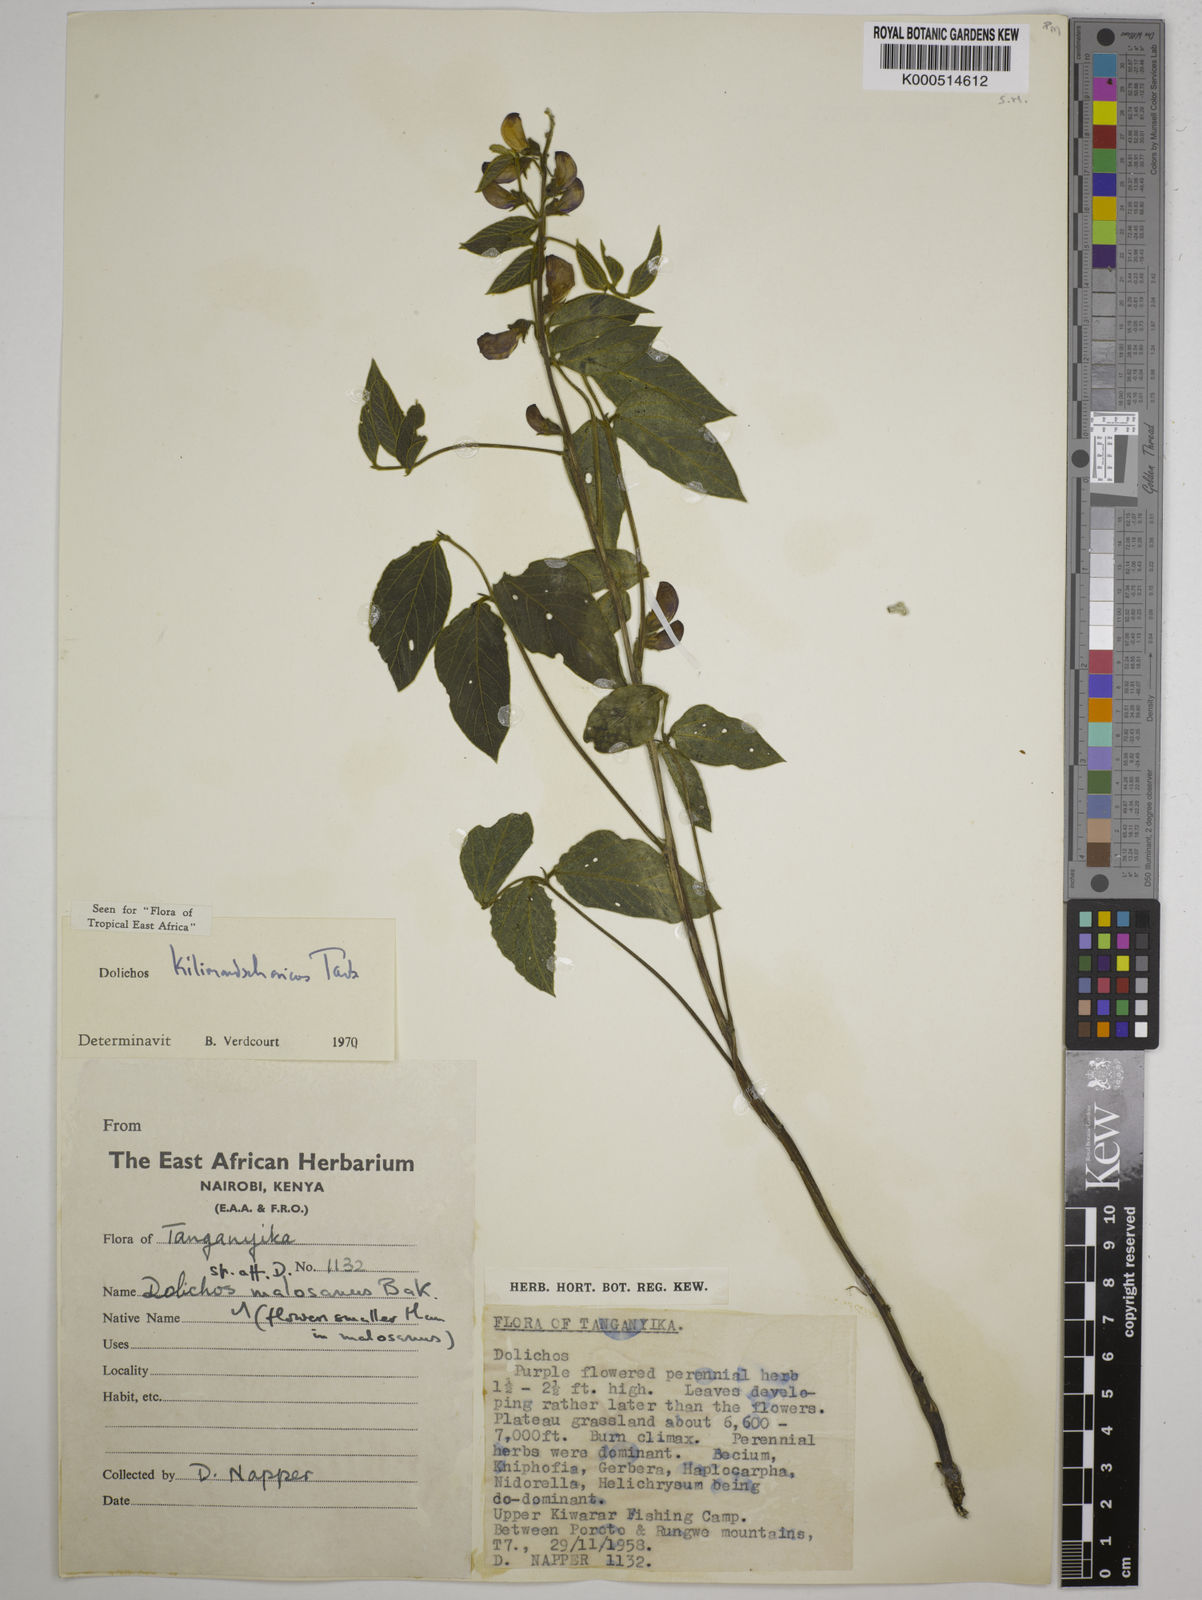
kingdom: Plantae
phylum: Tracheophyta
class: Magnoliopsida
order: Fabales
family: Fabaceae
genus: Dolichos
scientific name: Dolichos kilimandscharicus
